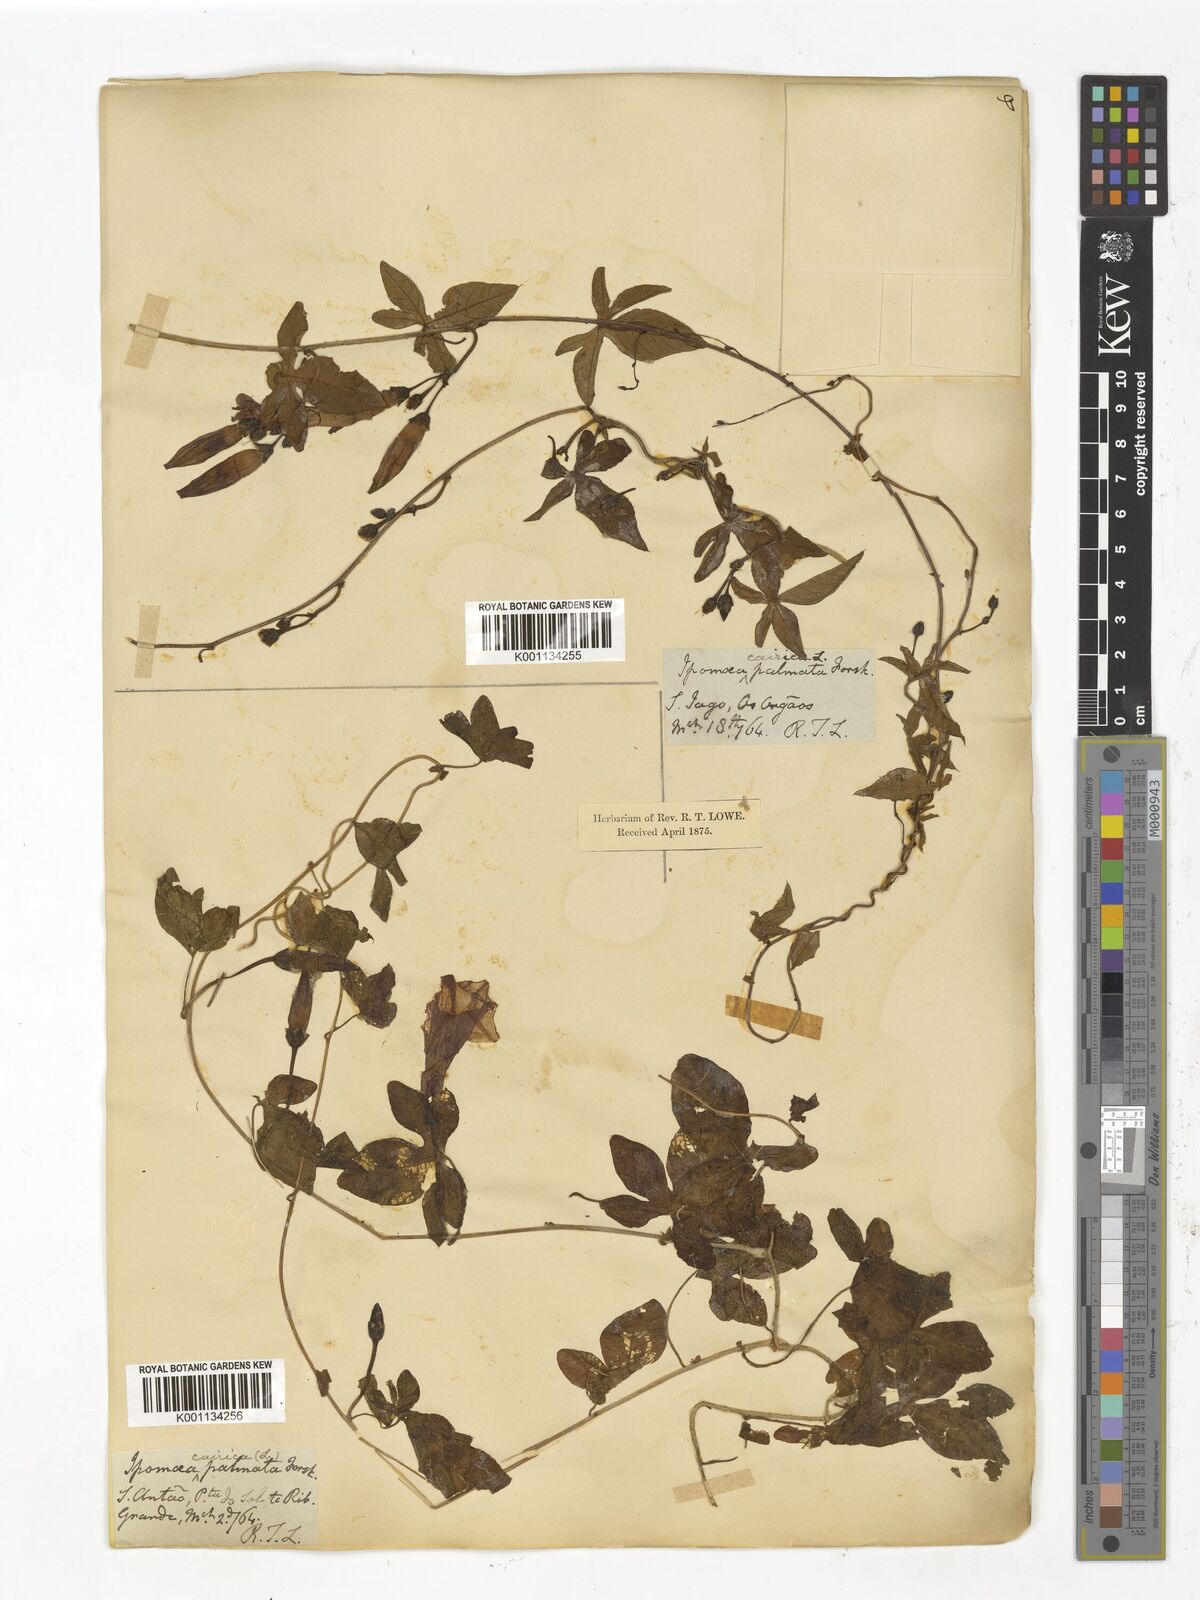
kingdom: Plantae
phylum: Tracheophyta
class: Magnoliopsida
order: Solanales
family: Convolvulaceae
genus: Ipomoea
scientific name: Ipomoea cairica
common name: Mile a minute vine
